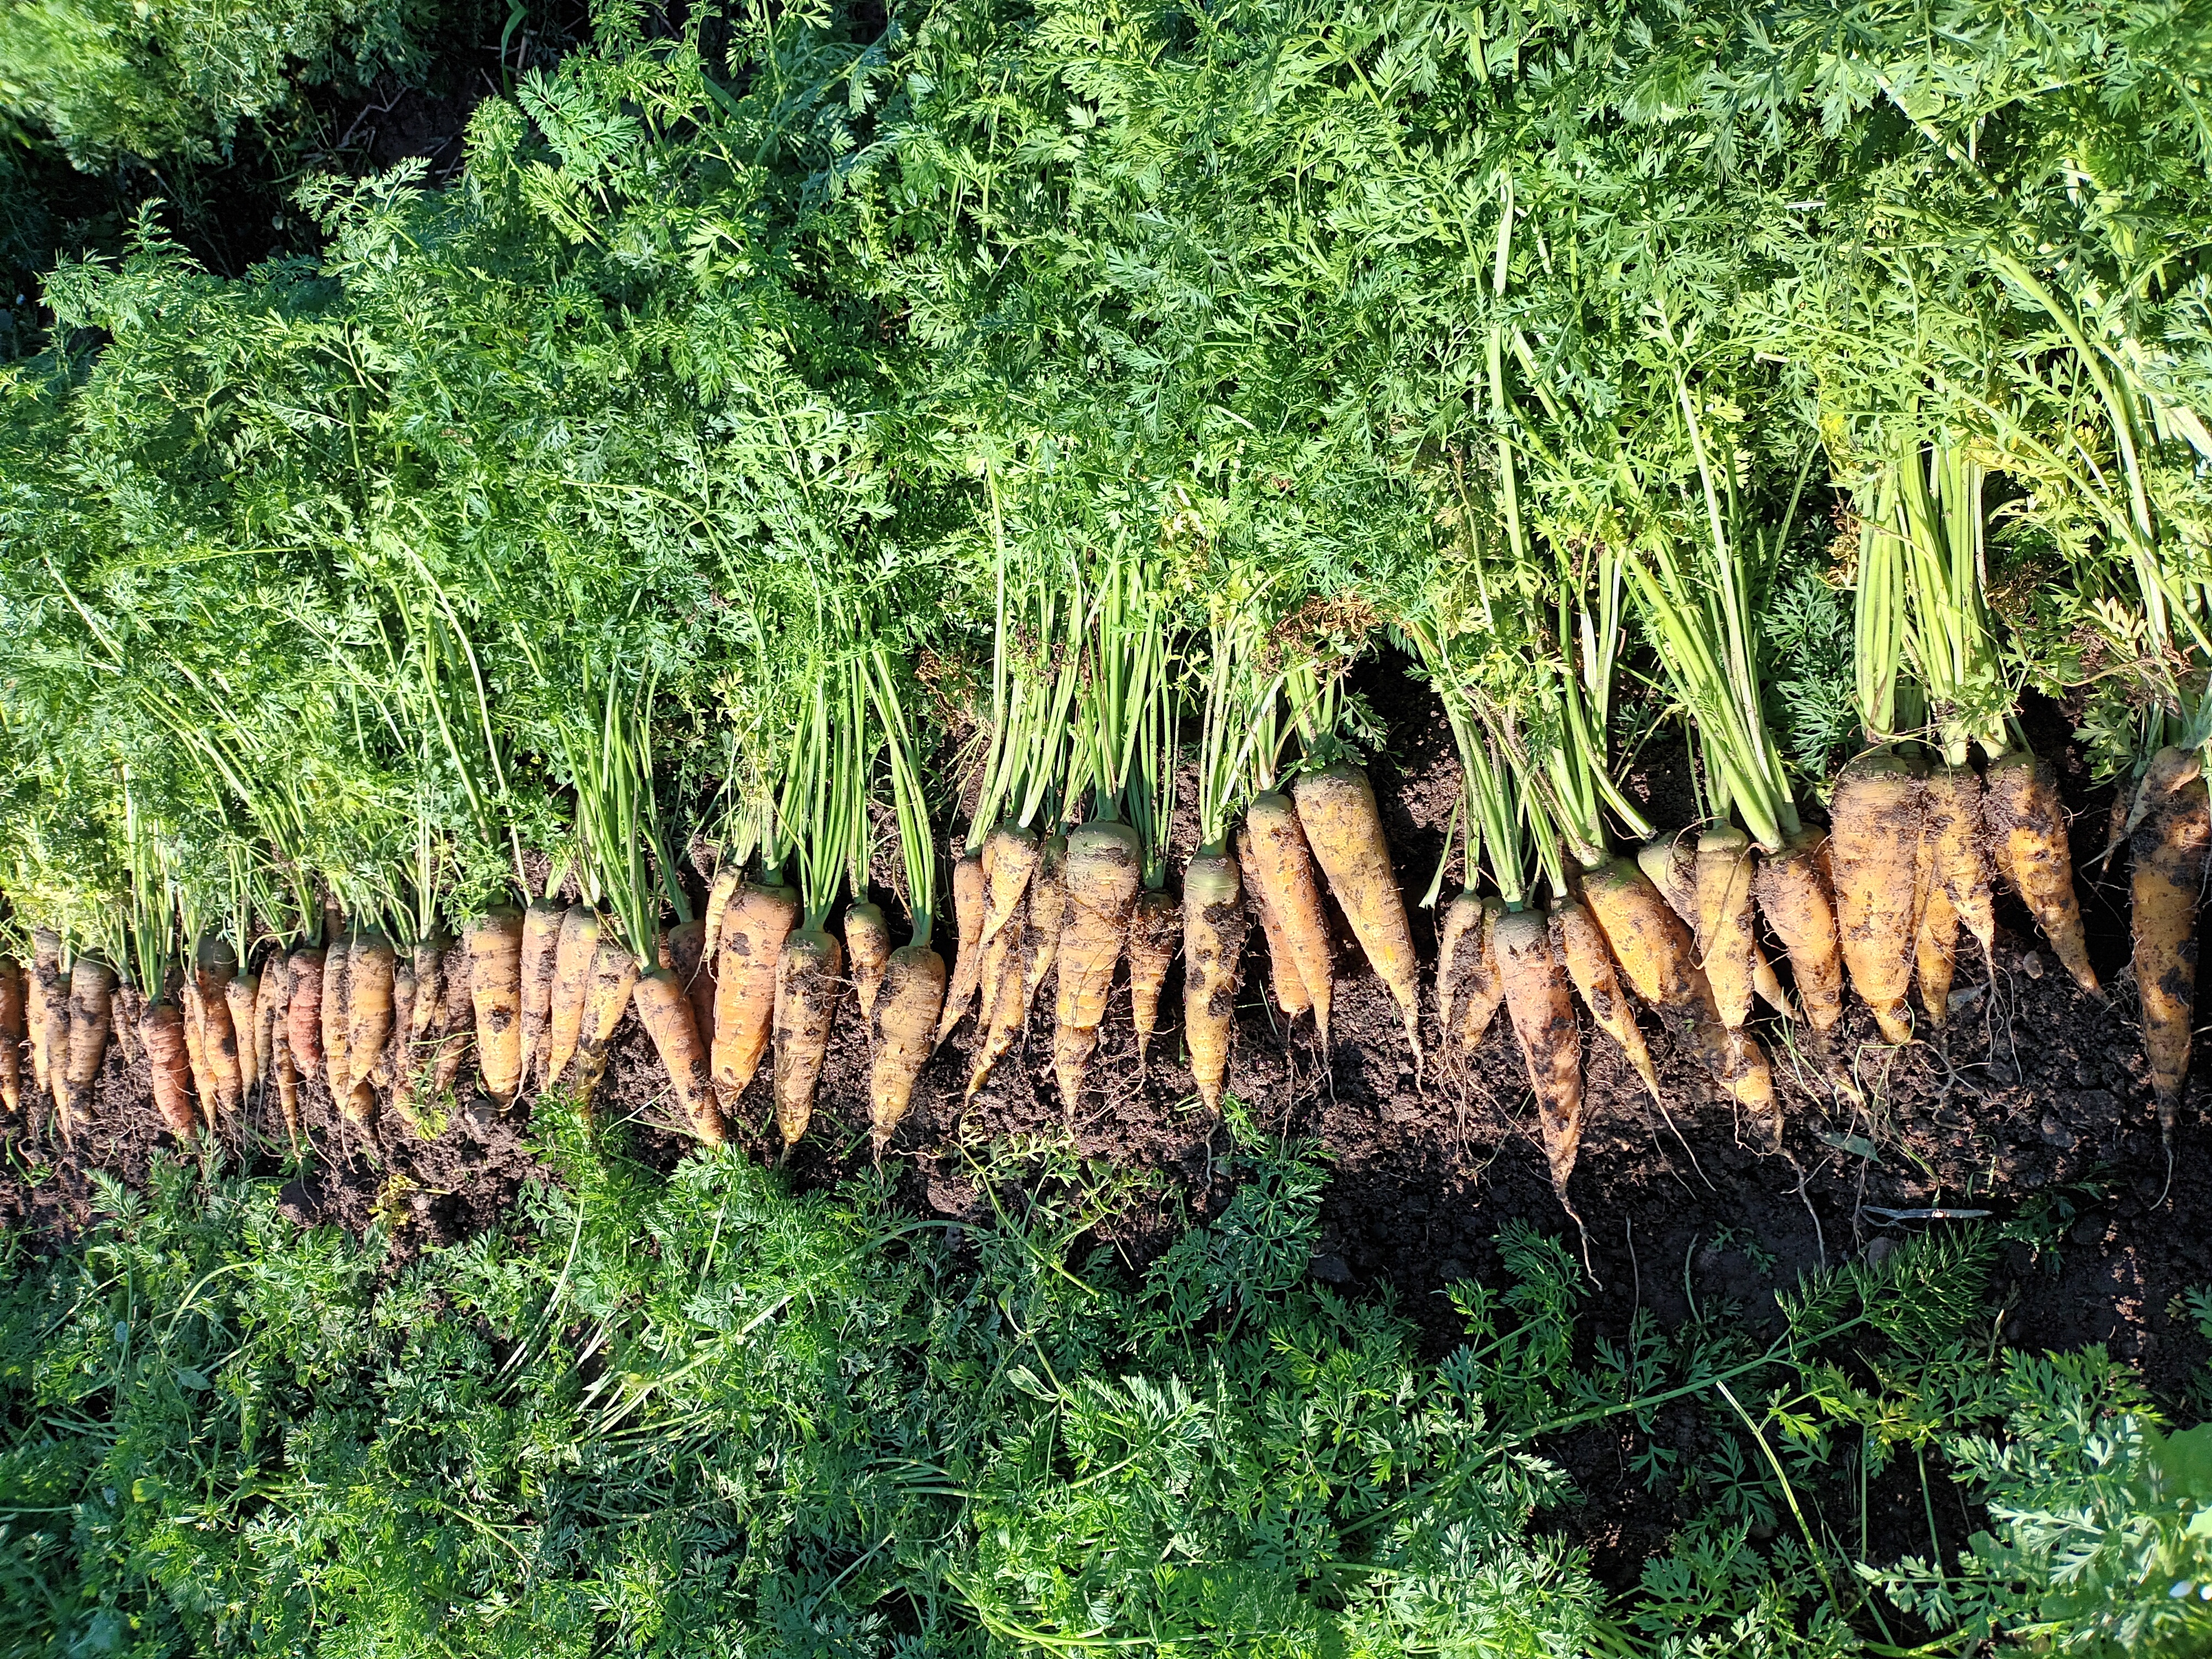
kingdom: Plantae
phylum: Tracheophyta
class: Magnoliopsida
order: Apiales
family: Apiaceae
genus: Daucus
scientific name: Daucus carota
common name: Wild carrot
